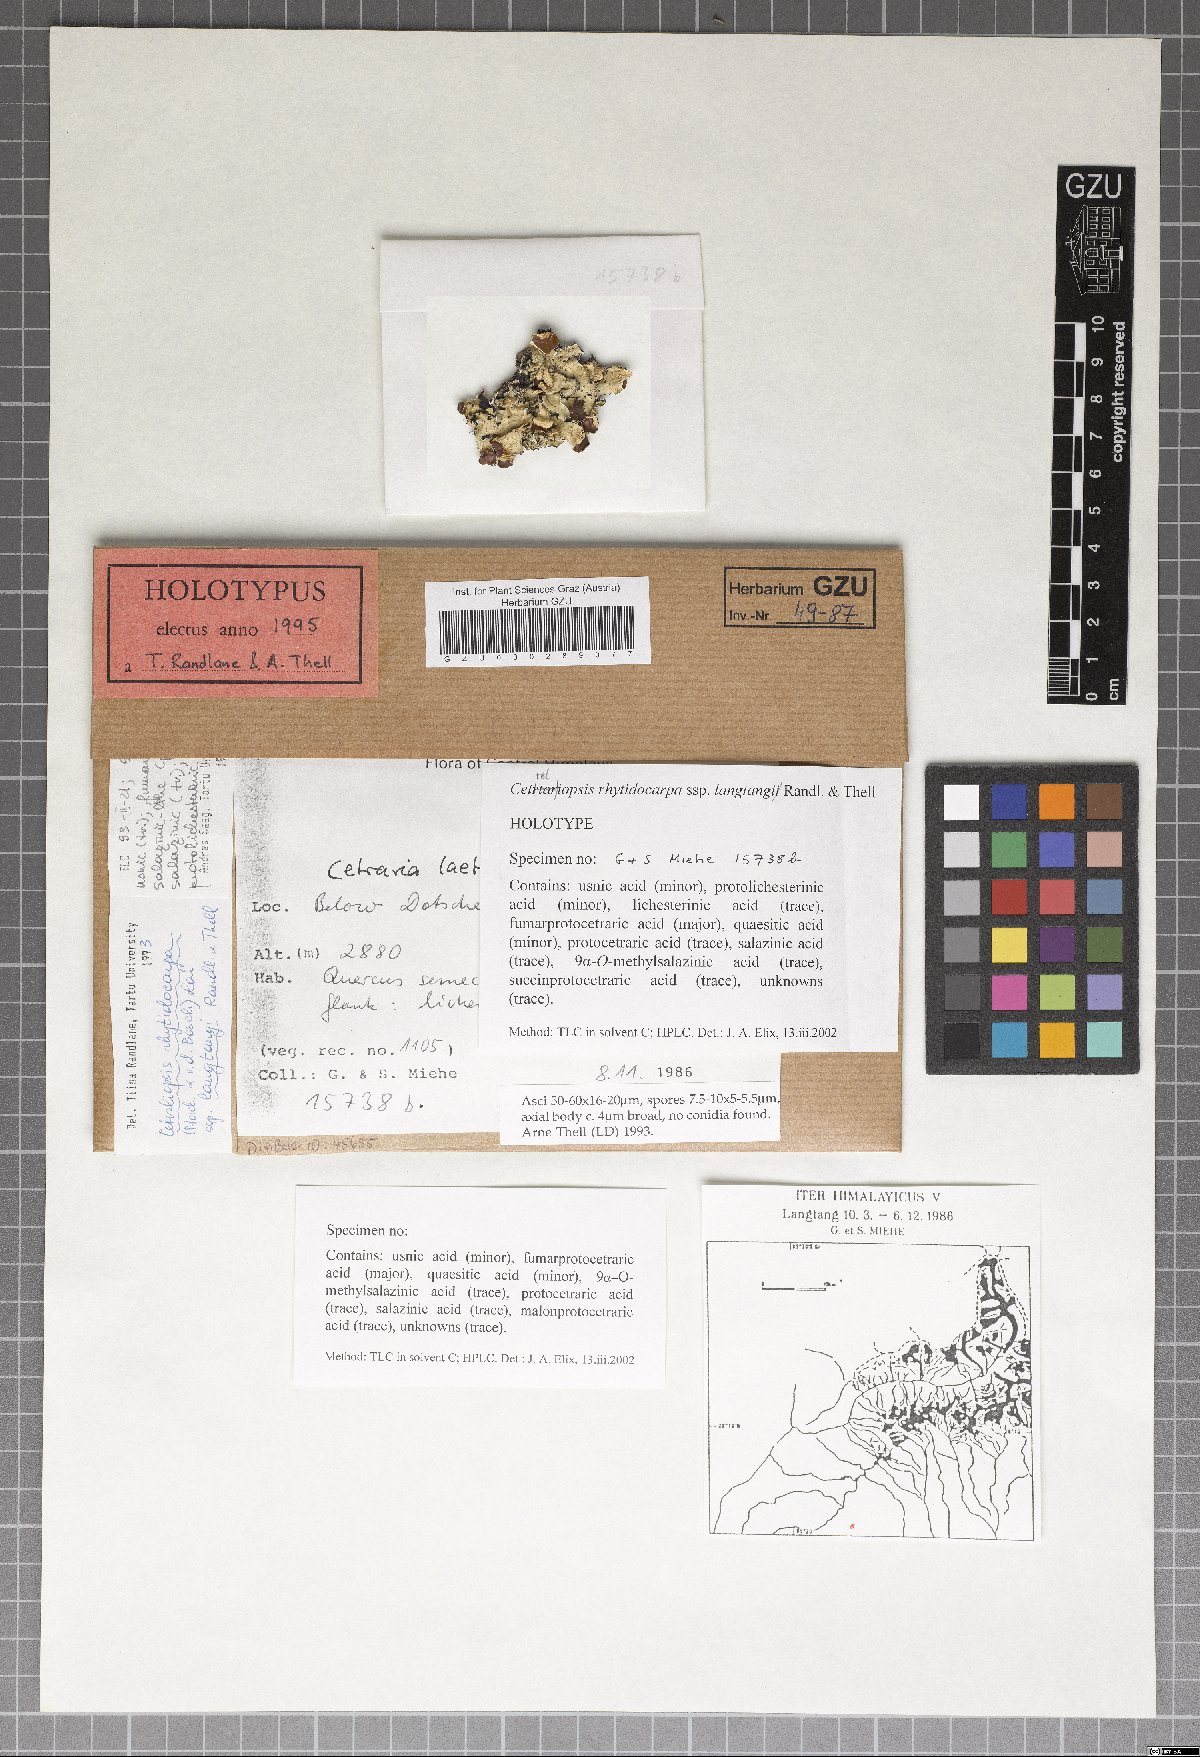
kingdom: Fungi
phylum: Ascomycota
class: Lecanoromycetes
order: Lecanorales
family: Parmeliaceae
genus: Cetreliopsis
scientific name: Cetreliopsis rhytidocarpa
